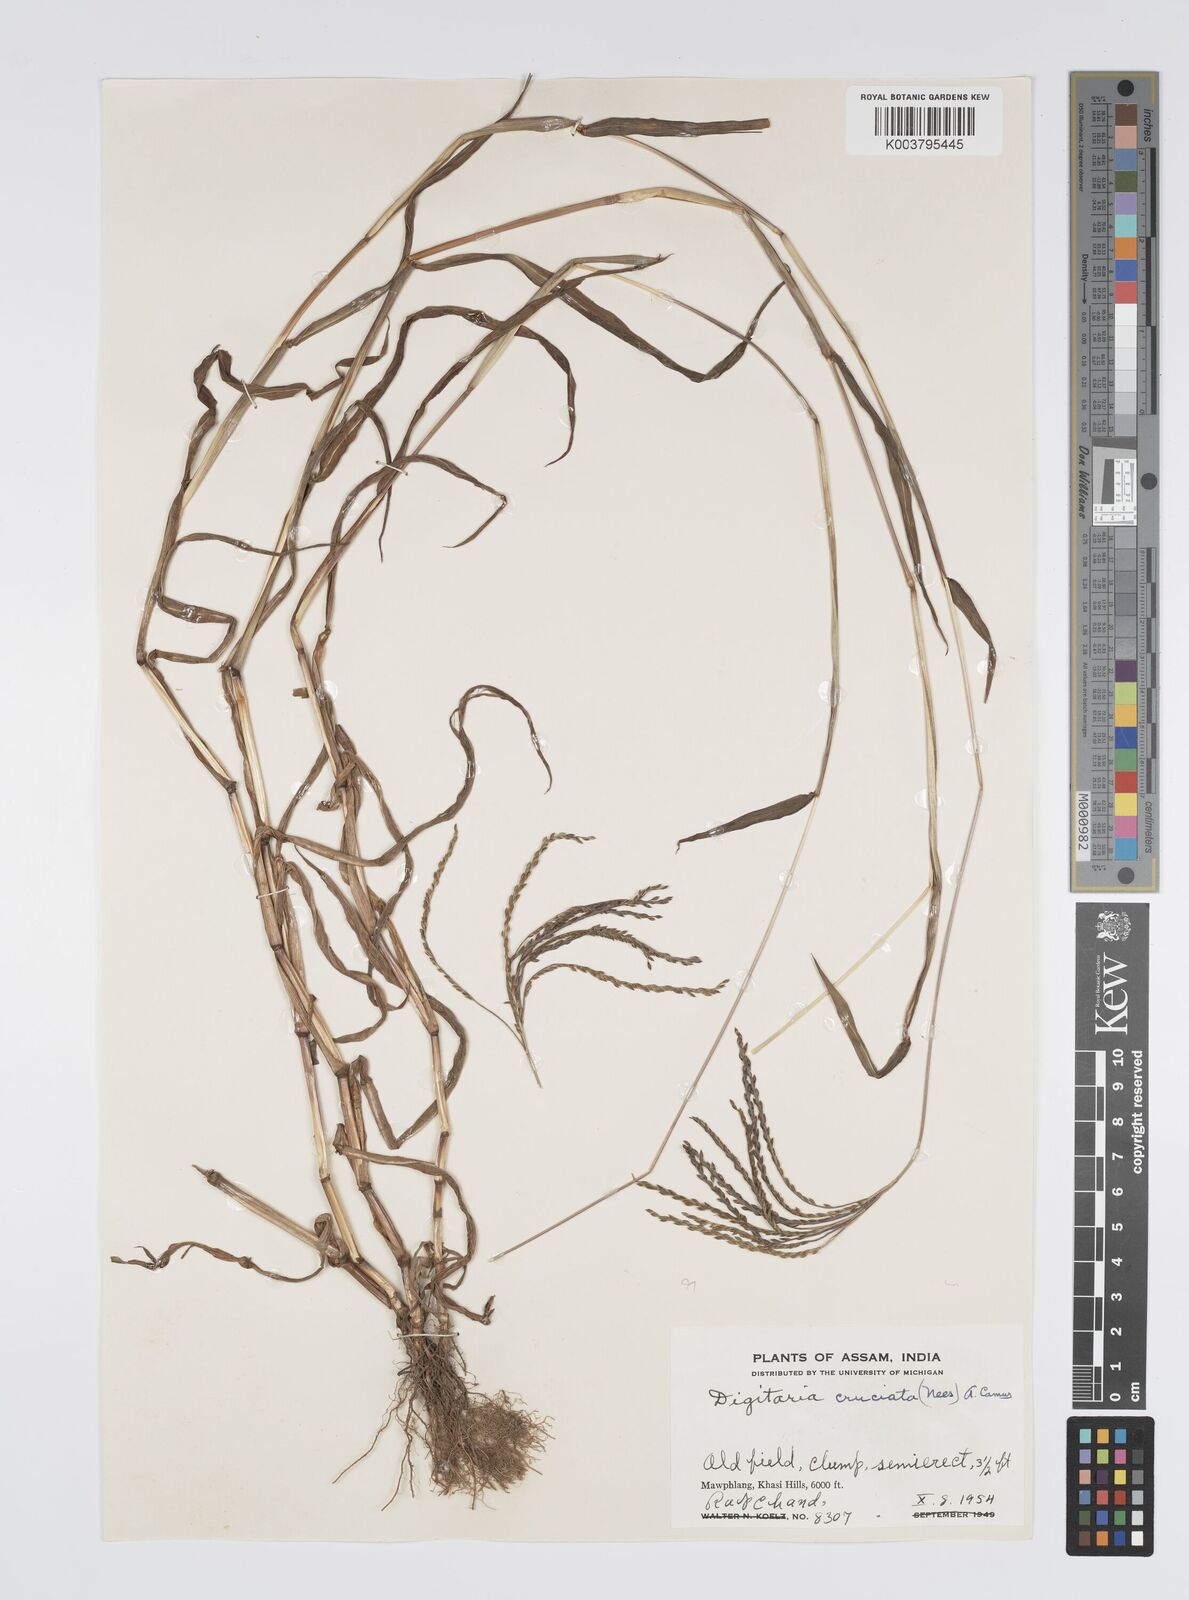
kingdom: Plantae
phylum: Tracheophyta
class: Liliopsida
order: Poales
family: Poaceae
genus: Digitaria
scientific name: Digitaria cruciata
